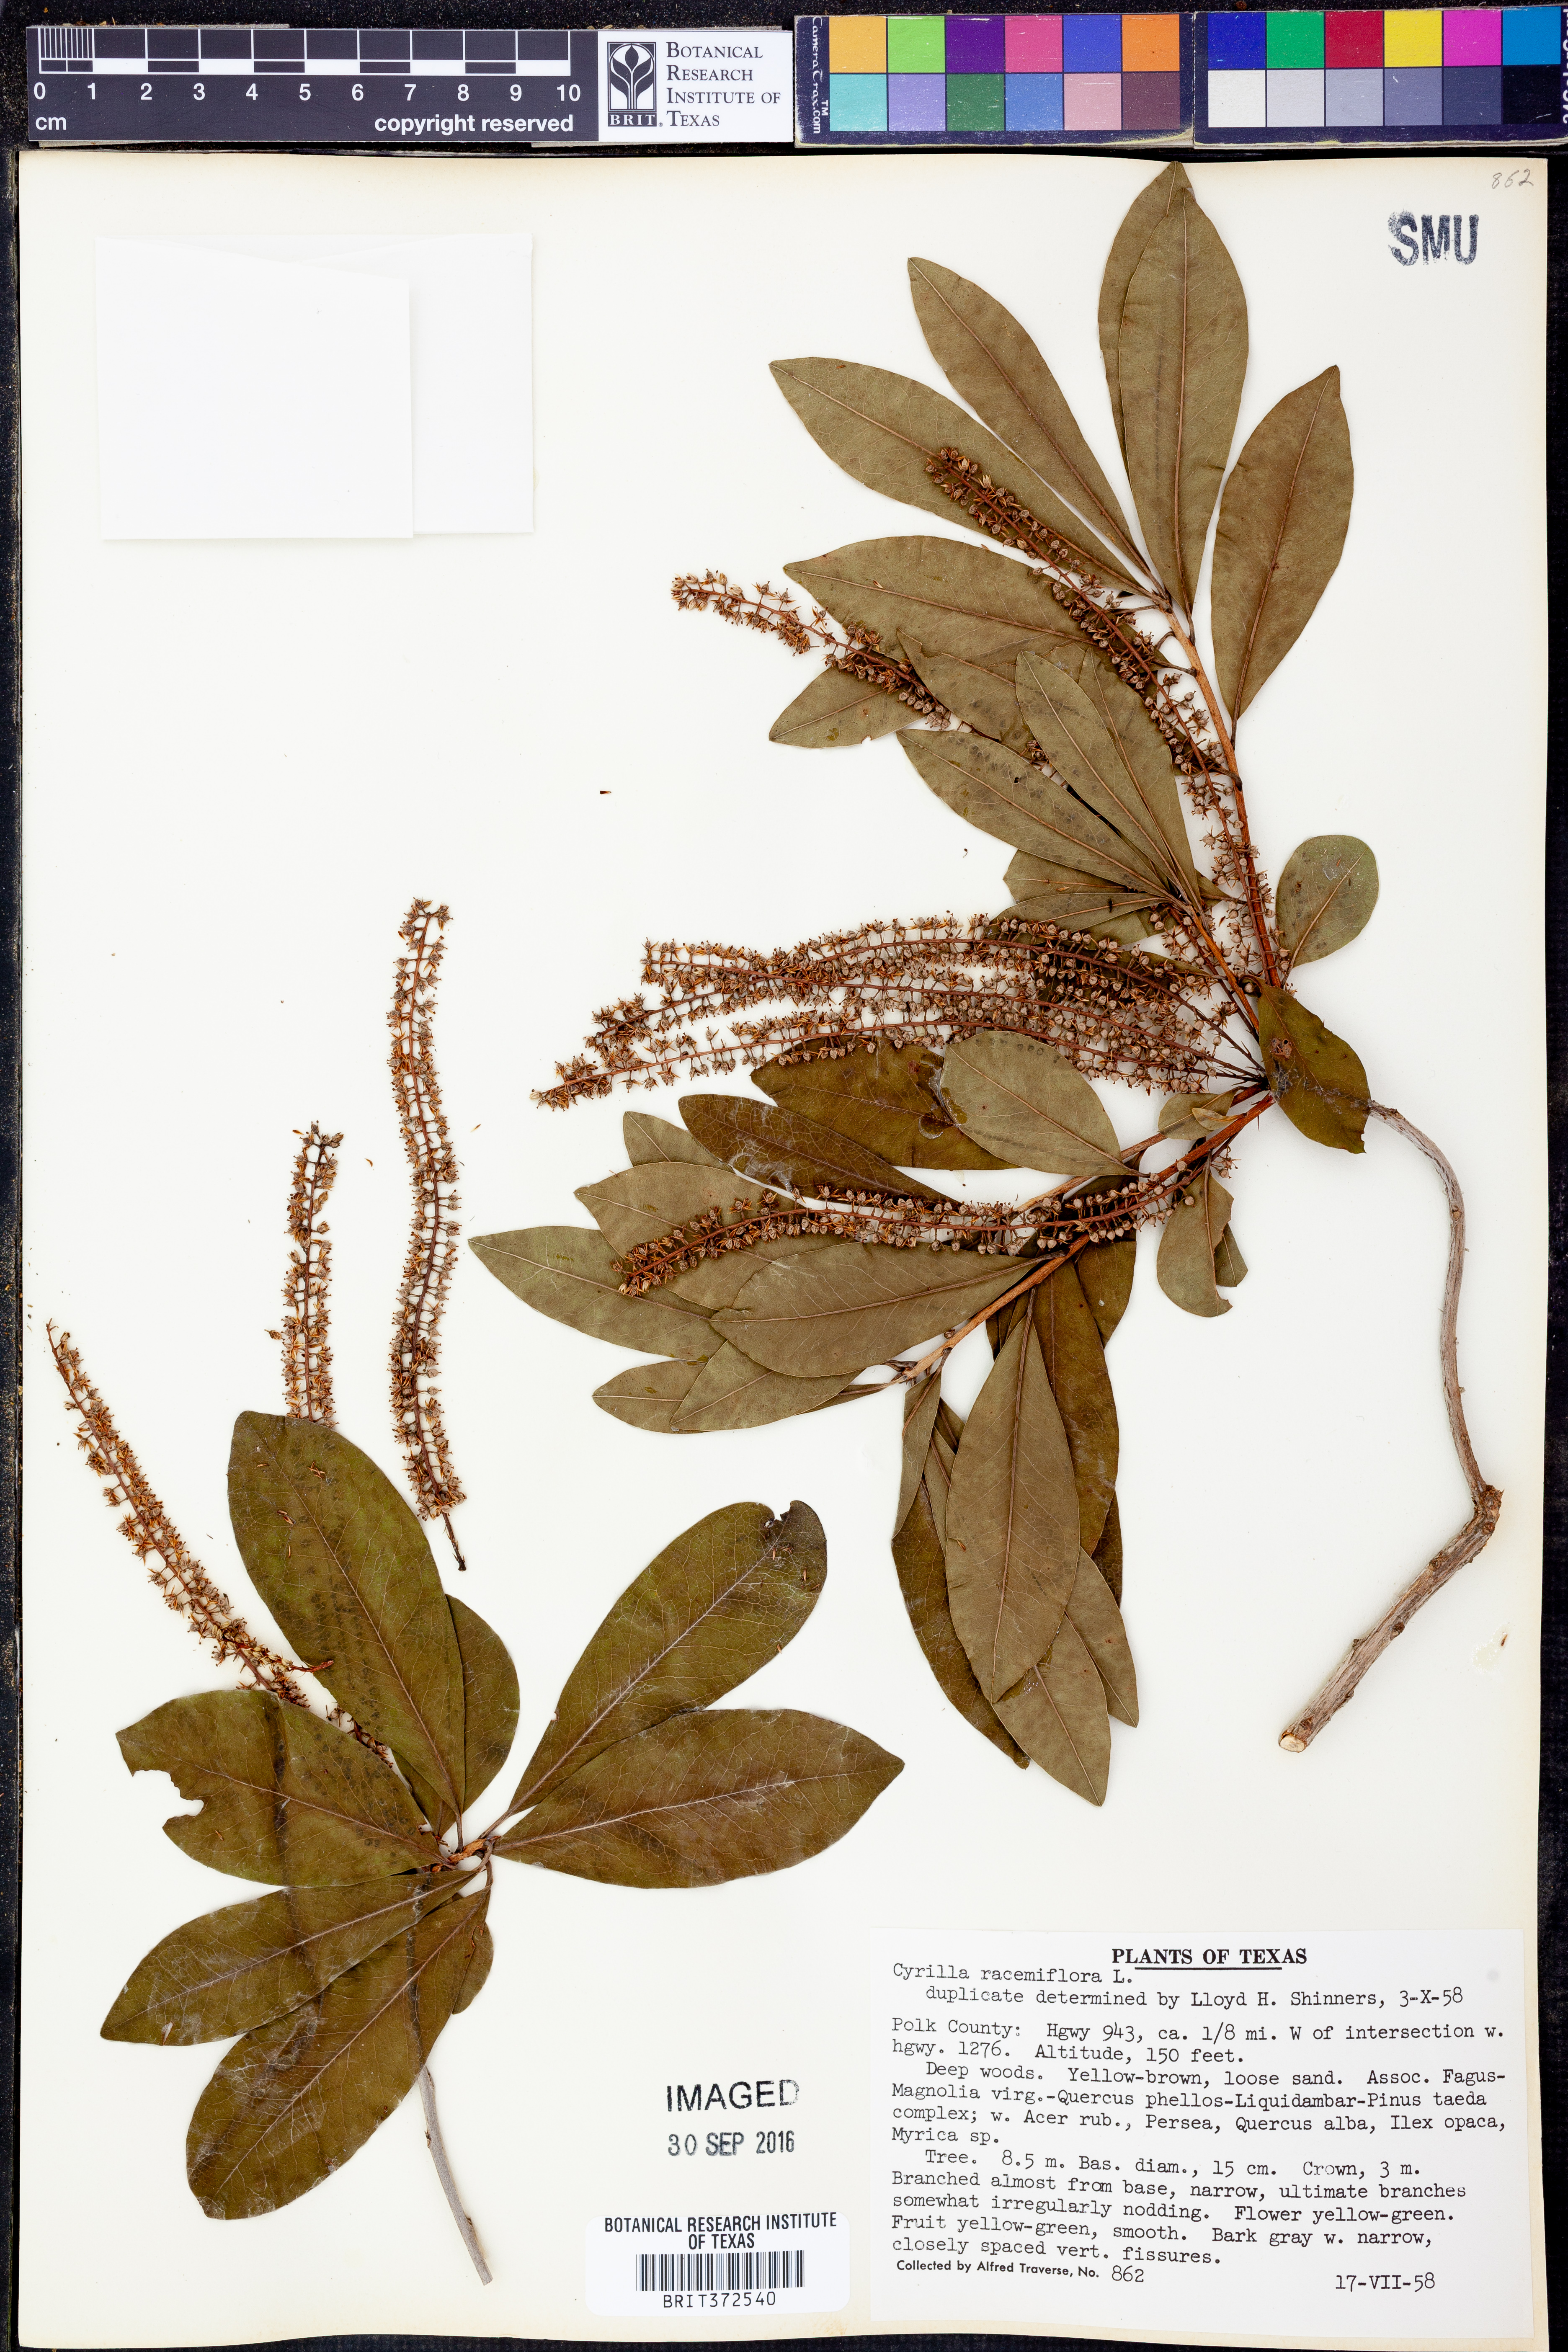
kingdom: Plantae
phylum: Tracheophyta
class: Magnoliopsida
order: Ericales
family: Cyrillaceae
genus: Cyrilla
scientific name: Cyrilla racemiflora
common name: Black titi
